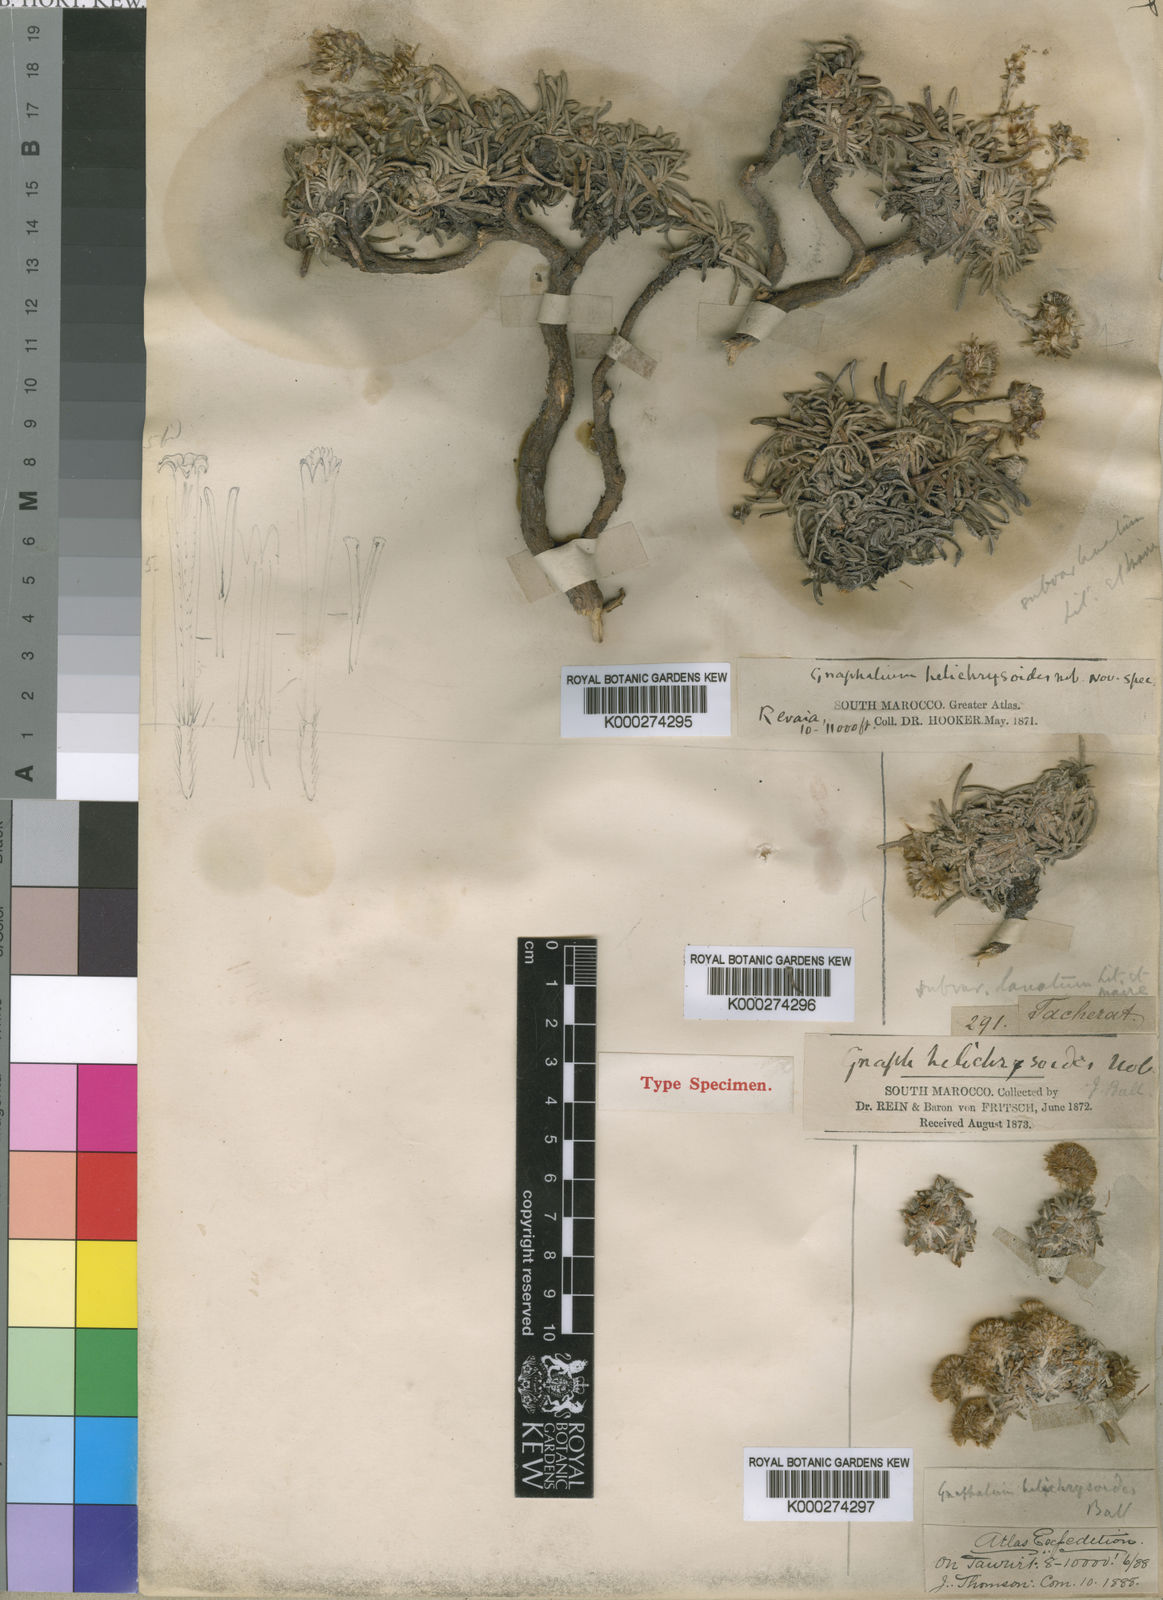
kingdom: Plantae
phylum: Tracheophyta
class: Magnoliopsida
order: Asterales
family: Asteraceae
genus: Aliella
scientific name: Aliella
